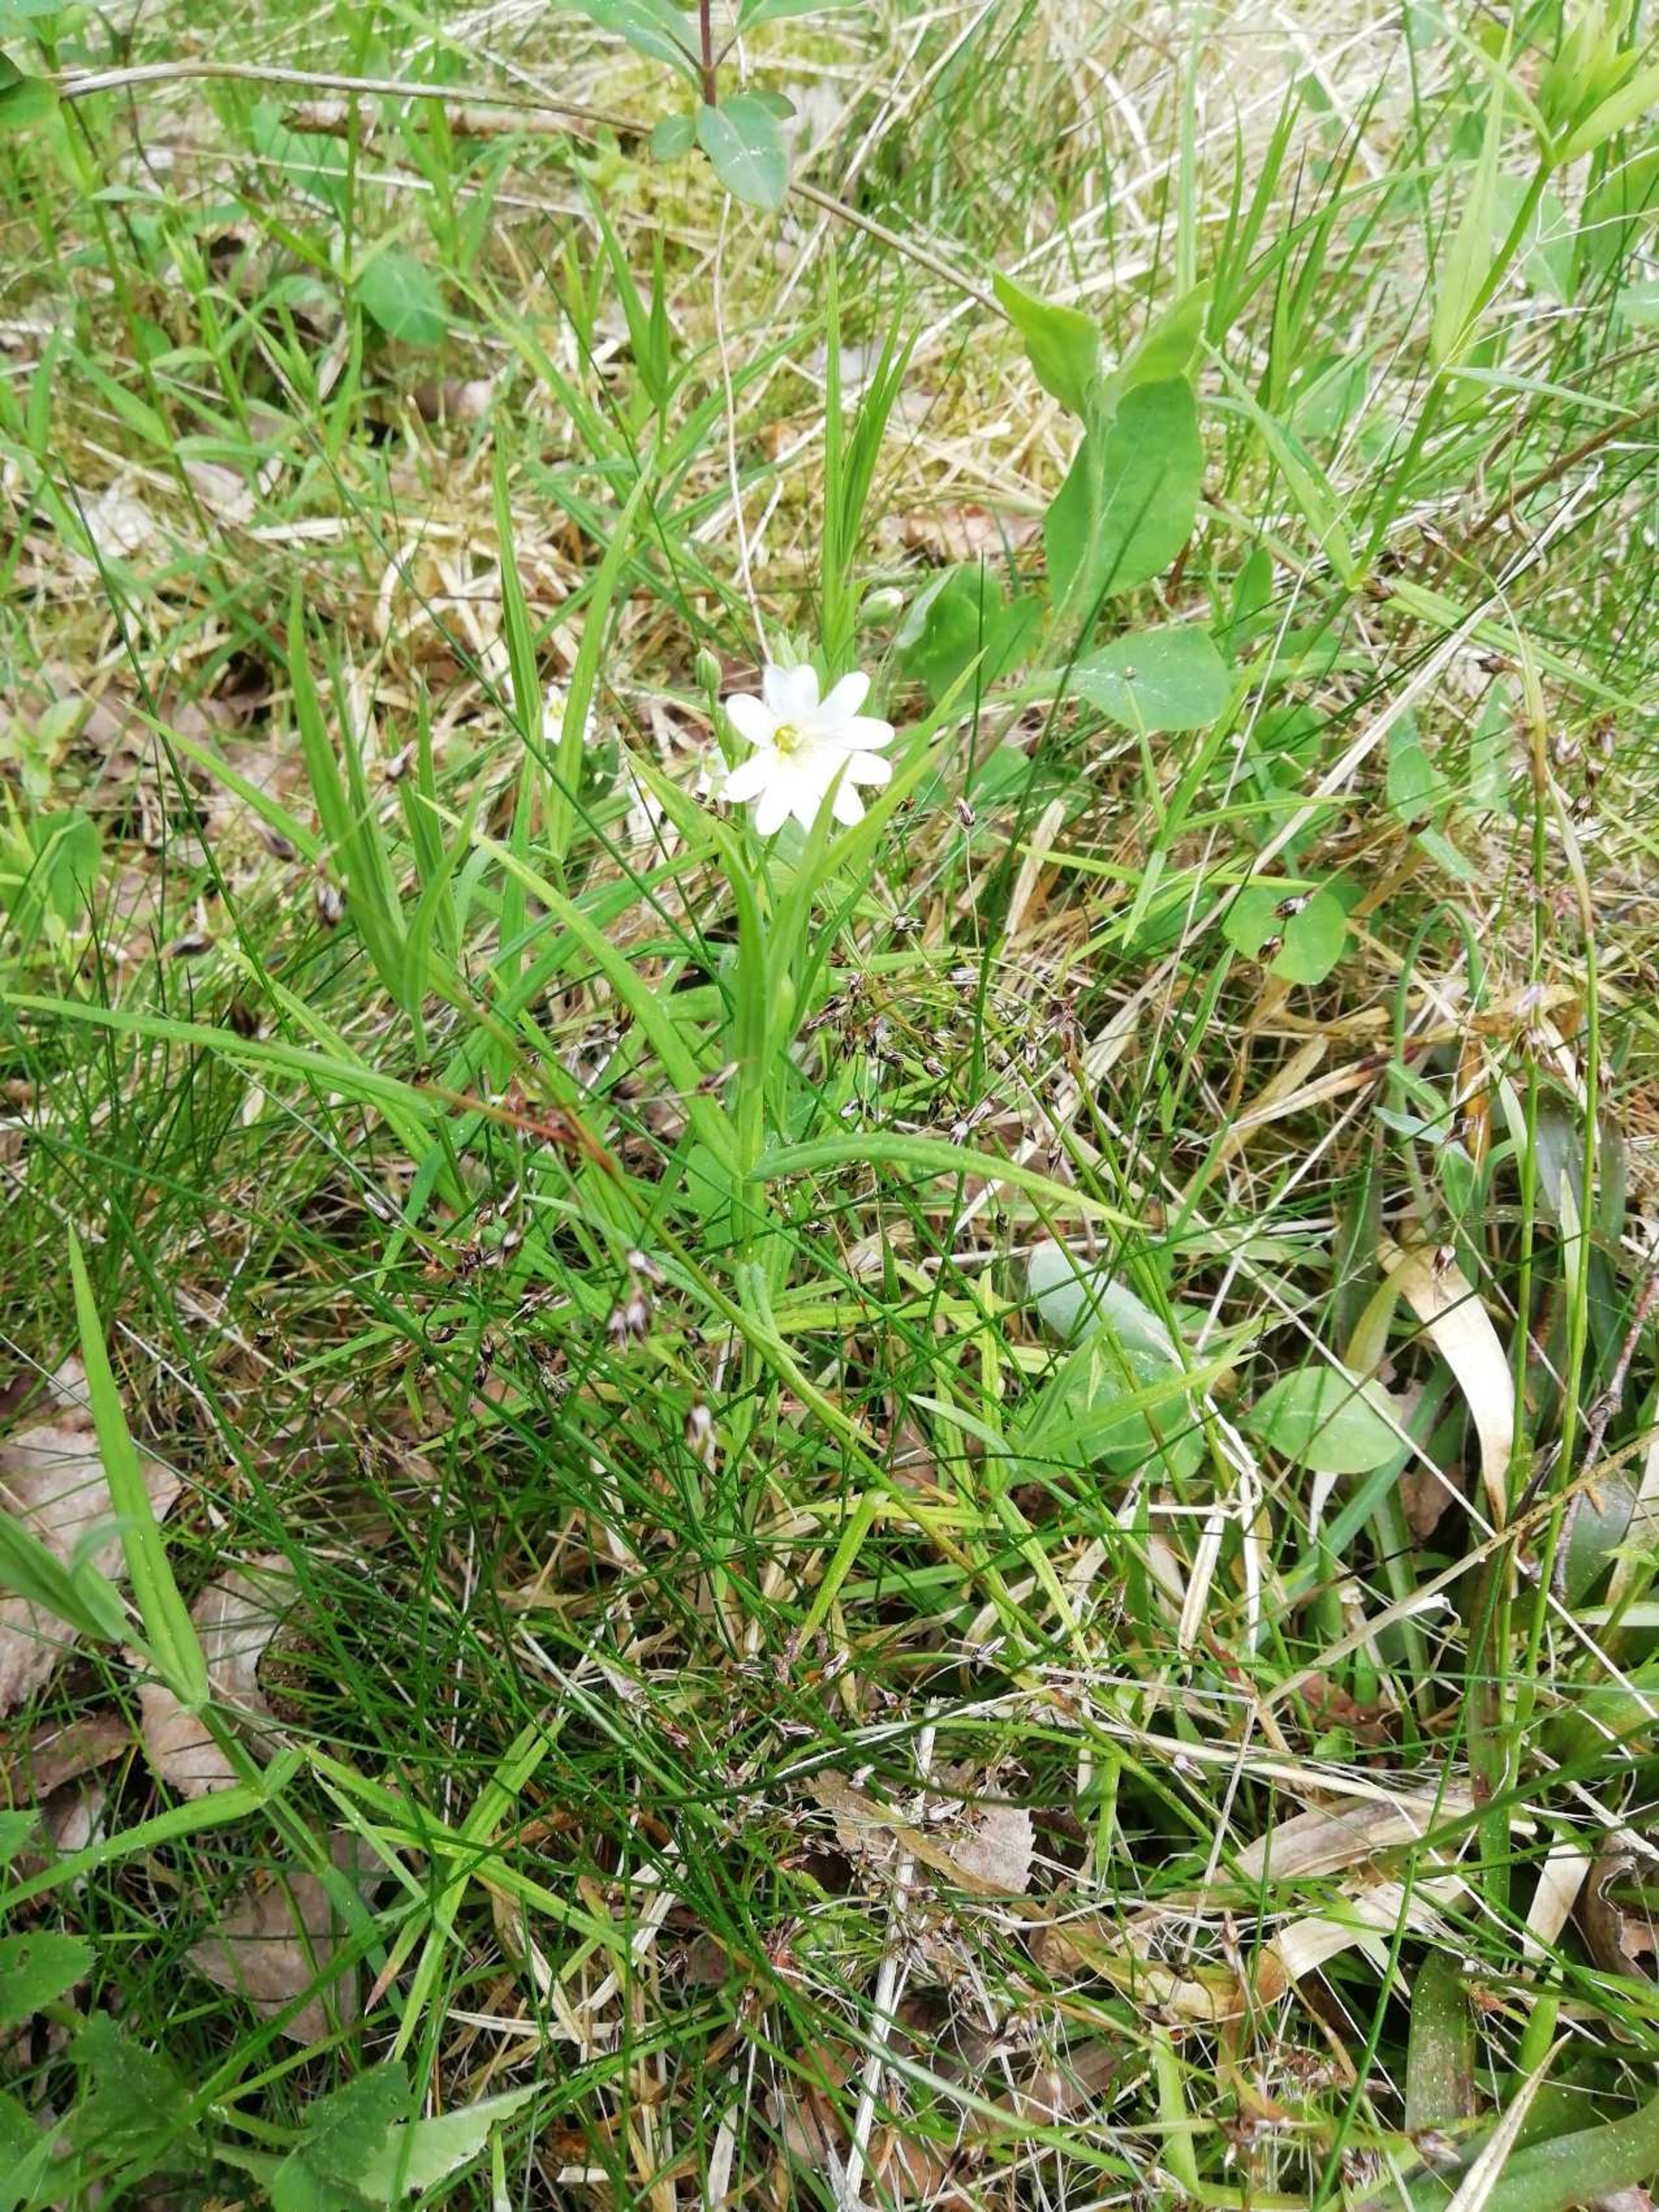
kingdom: Plantae
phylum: Tracheophyta
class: Magnoliopsida
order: Caryophyllales
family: Caryophyllaceae
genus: Rabelera
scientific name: Rabelera holostea
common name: Stor fladstjerne
